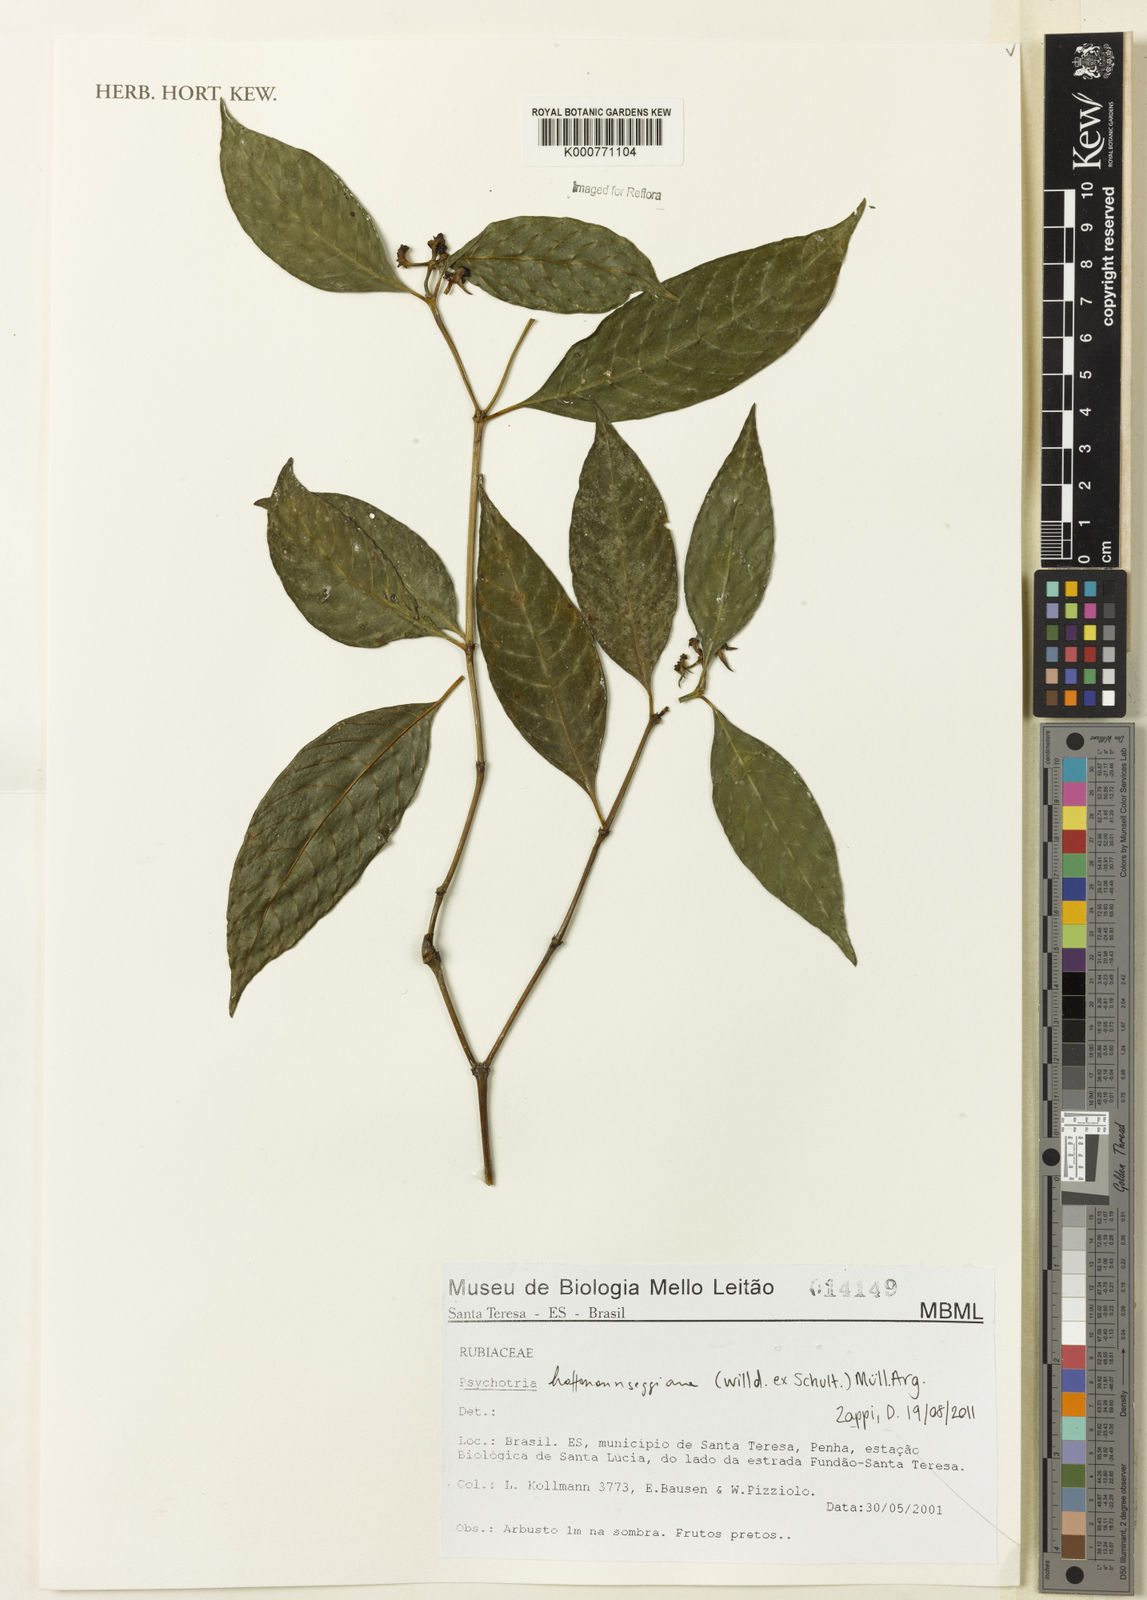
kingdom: Plantae
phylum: Tracheophyta
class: Magnoliopsida
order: Gentianales
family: Rubiaceae
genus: Psychotria
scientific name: Psychotria
